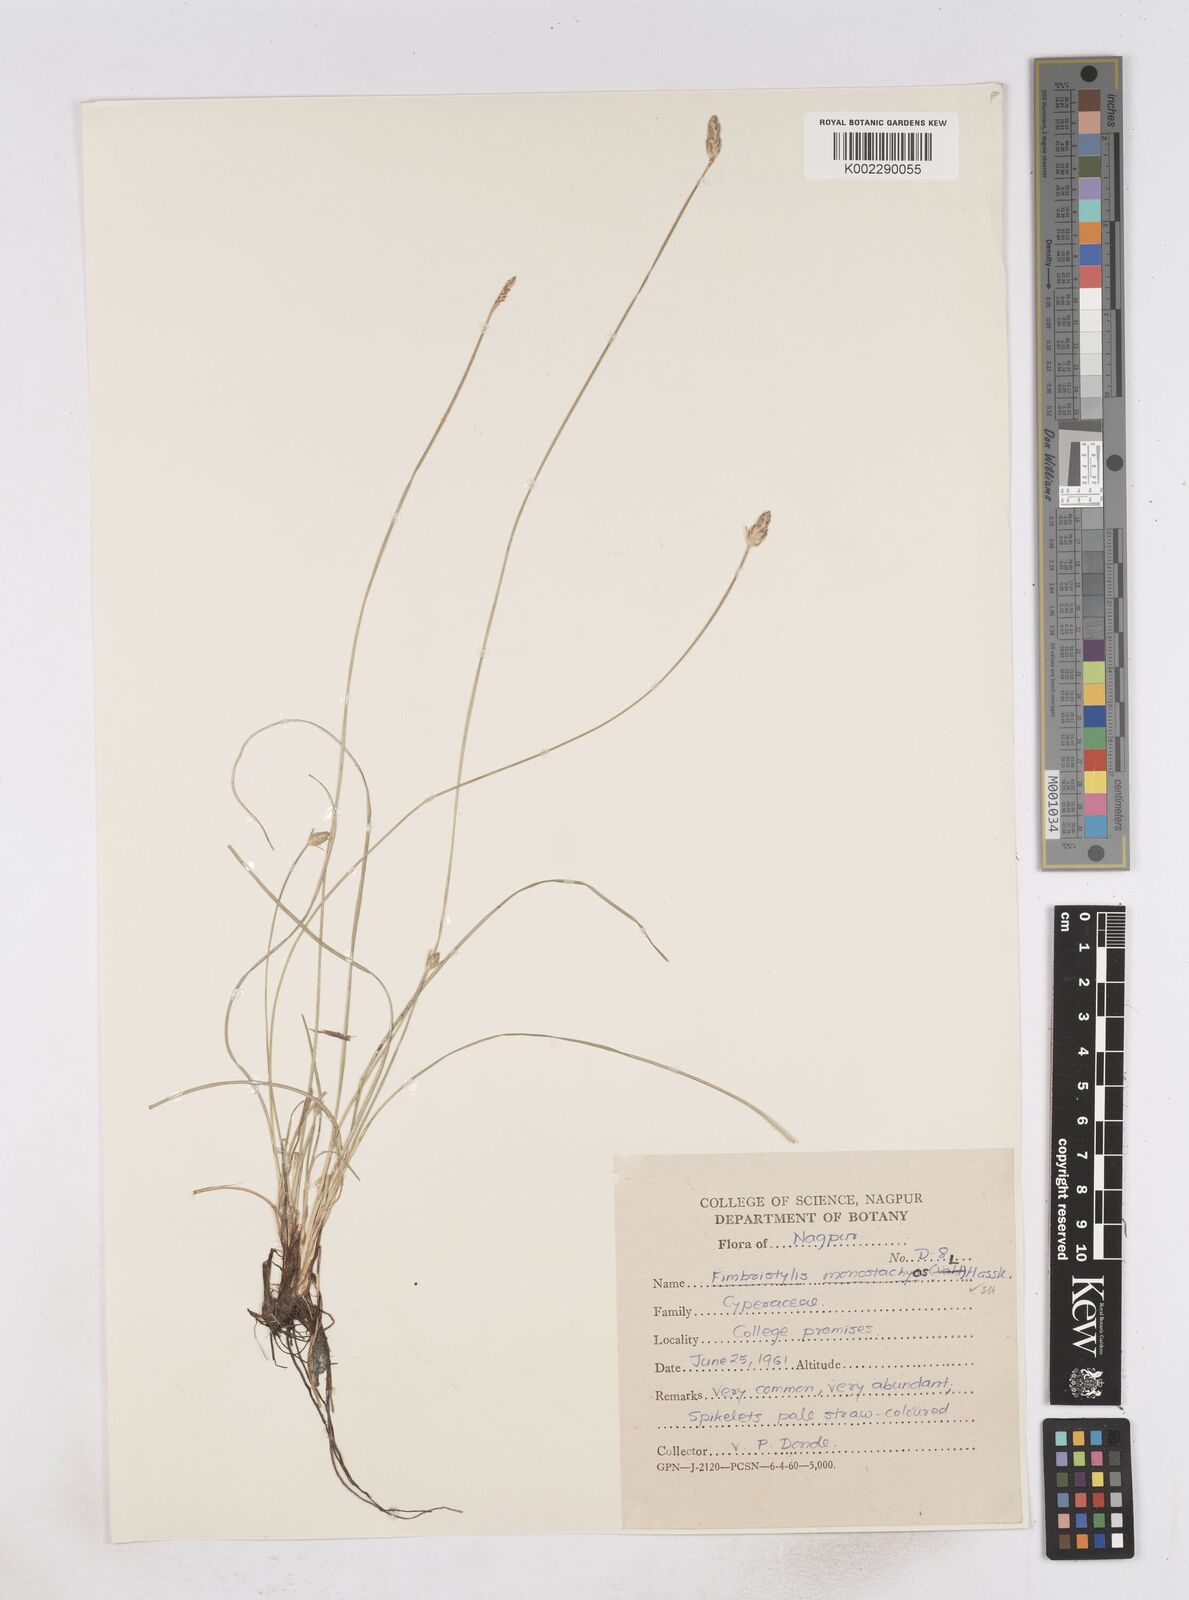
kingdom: Plantae
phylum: Tracheophyta
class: Liliopsida
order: Poales
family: Cyperaceae
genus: Abildgaardia
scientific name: Abildgaardia ovata
